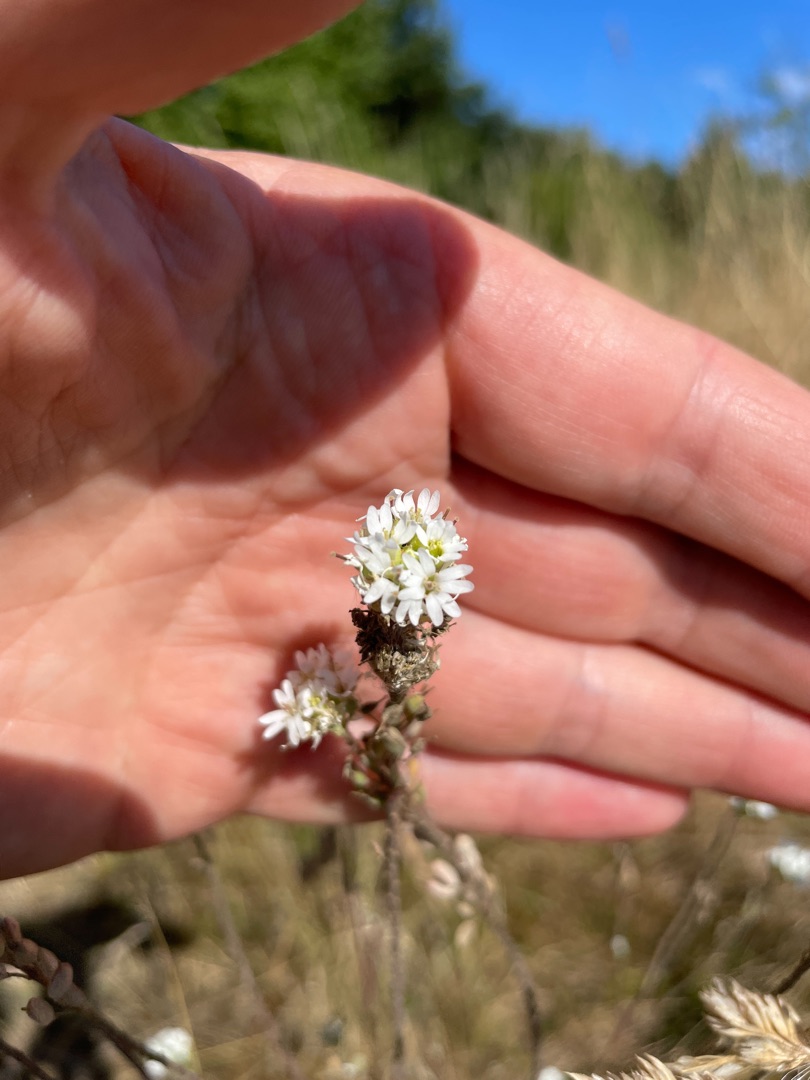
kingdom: Plantae
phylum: Tracheophyta
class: Magnoliopsida
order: Brassicales
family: Brassicaceae
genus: Berteroa
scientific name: Berteroa incana
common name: Kløvplade
